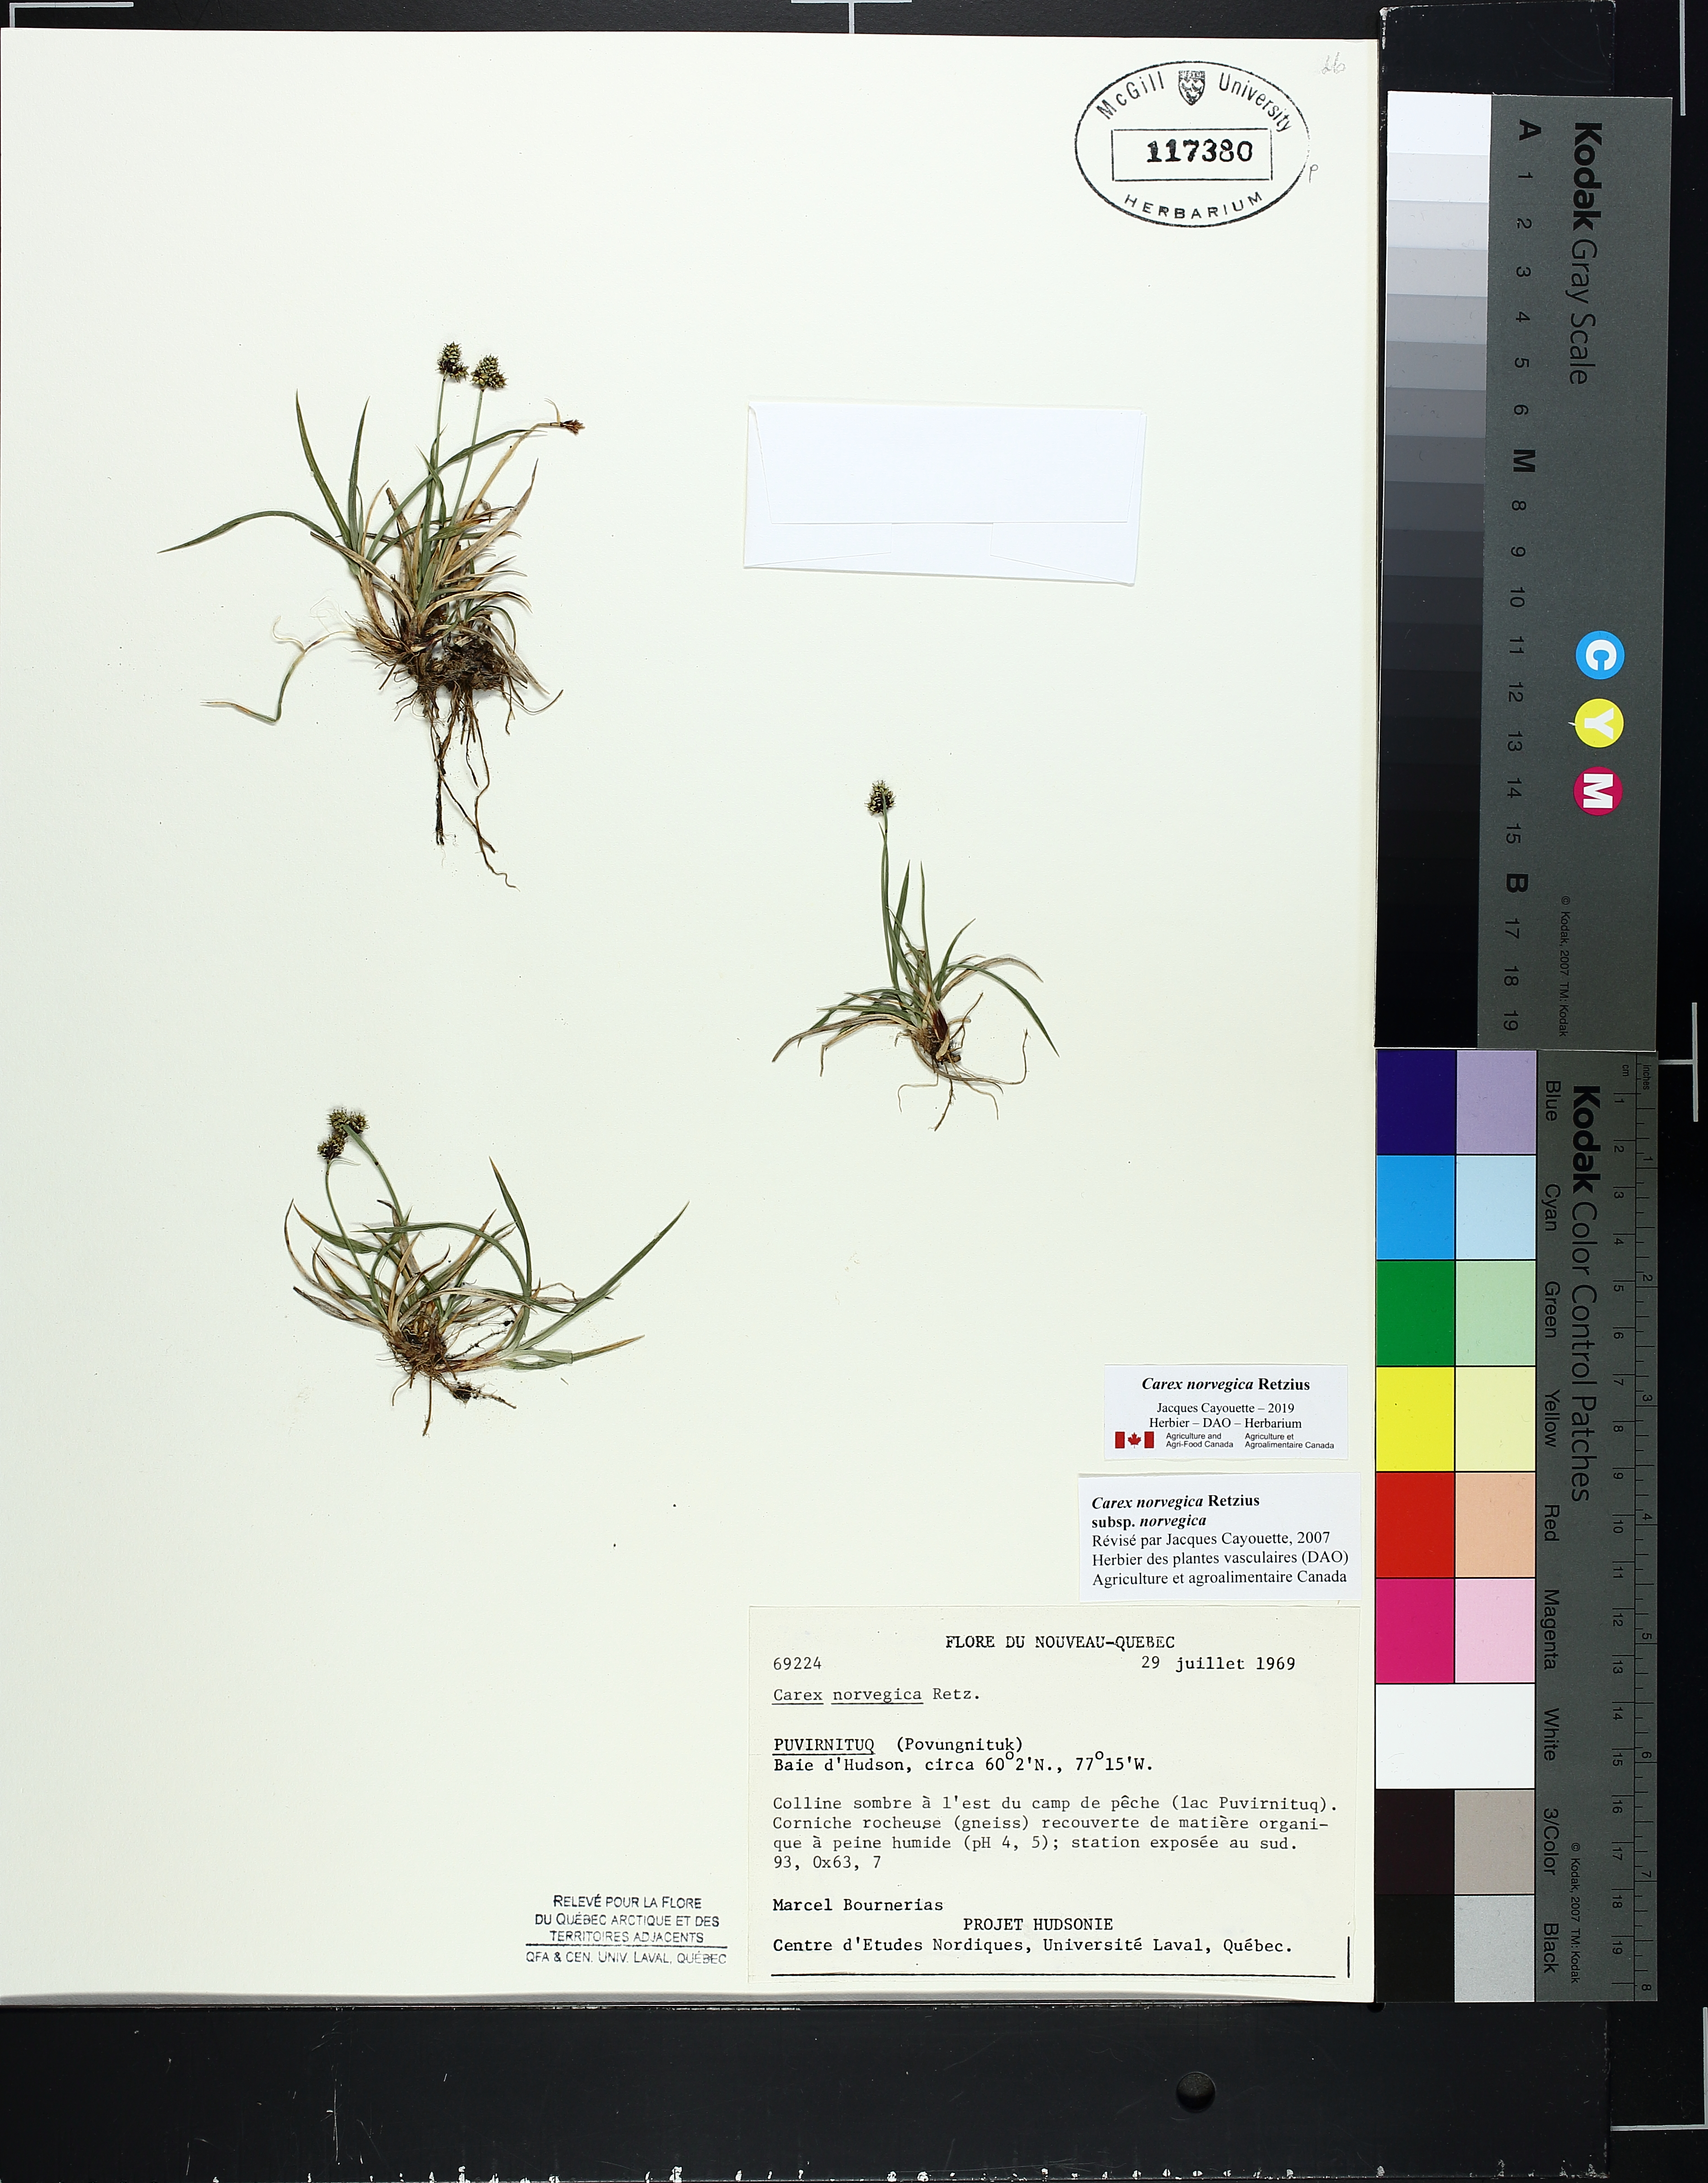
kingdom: Plantae
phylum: Tracheophyta
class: Liliopsida
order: Poales
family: Cyperaceae
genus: Carex
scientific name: Carex norvegica
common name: Close-headed alpine-sedge
